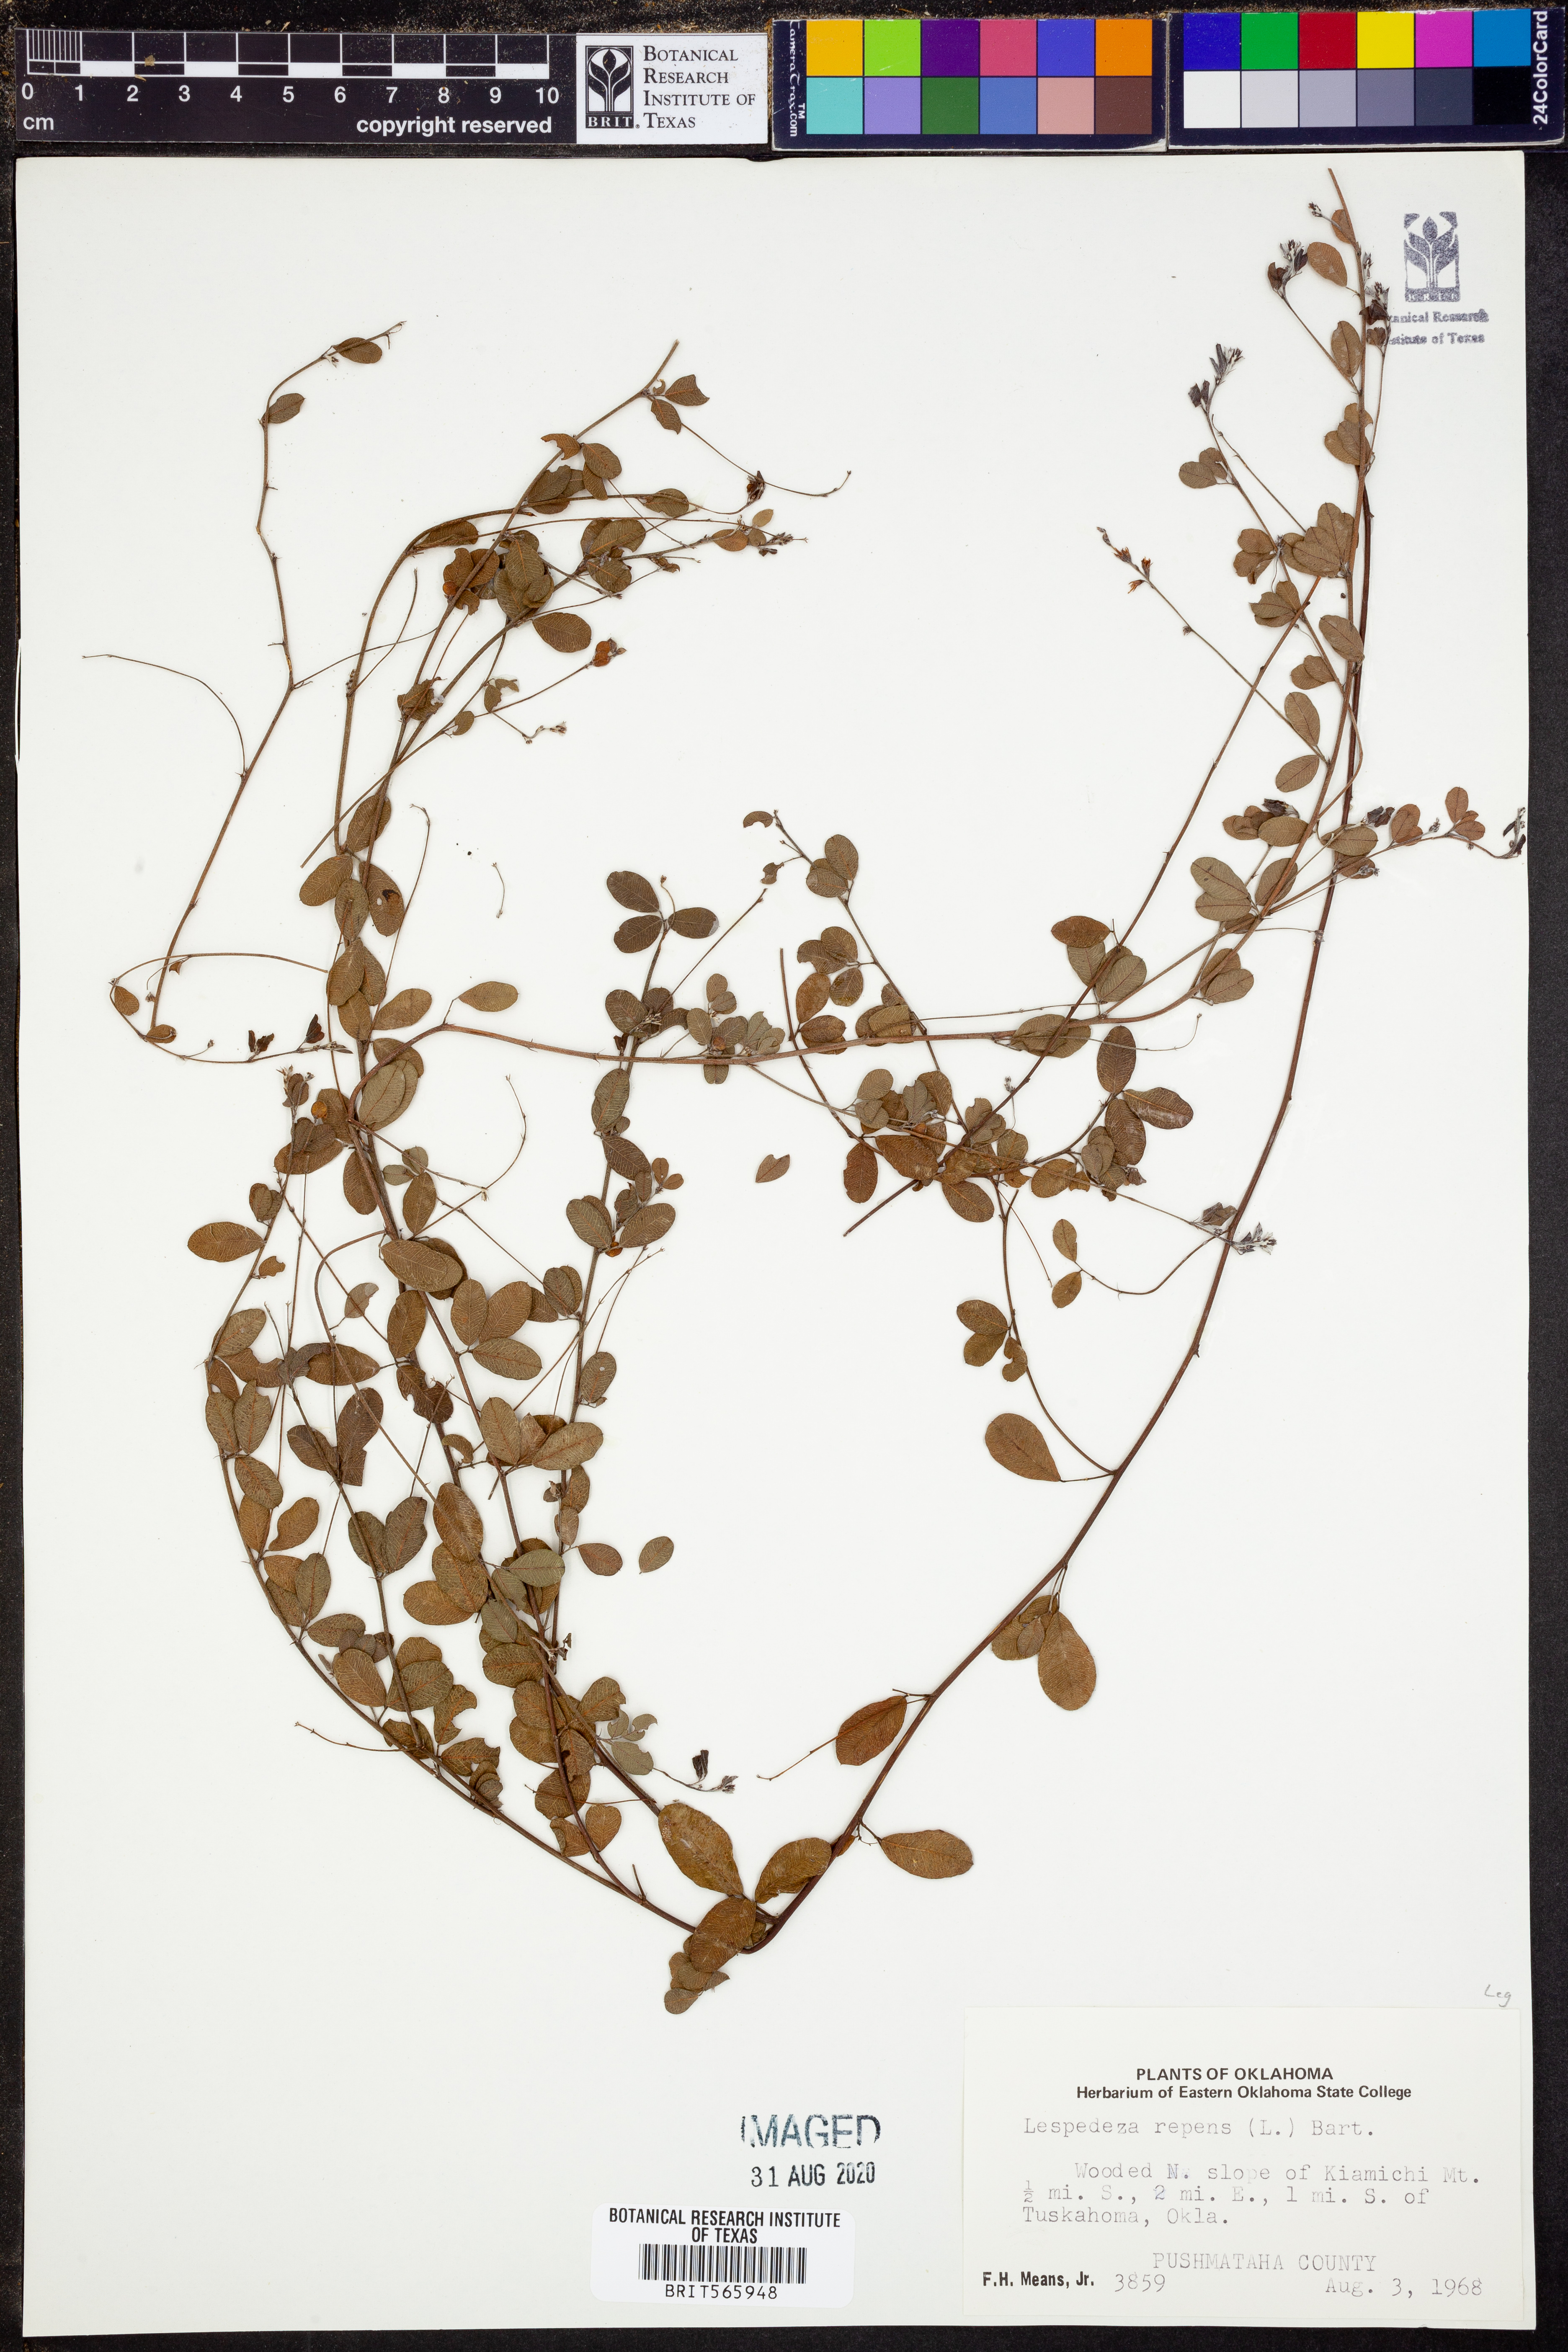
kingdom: Plantae
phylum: Tracheophyta
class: Magnoliopsida
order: Fabales
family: Fabaceae
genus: Lespedeza
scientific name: Lespedeza repens
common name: Creeping bush-clover
